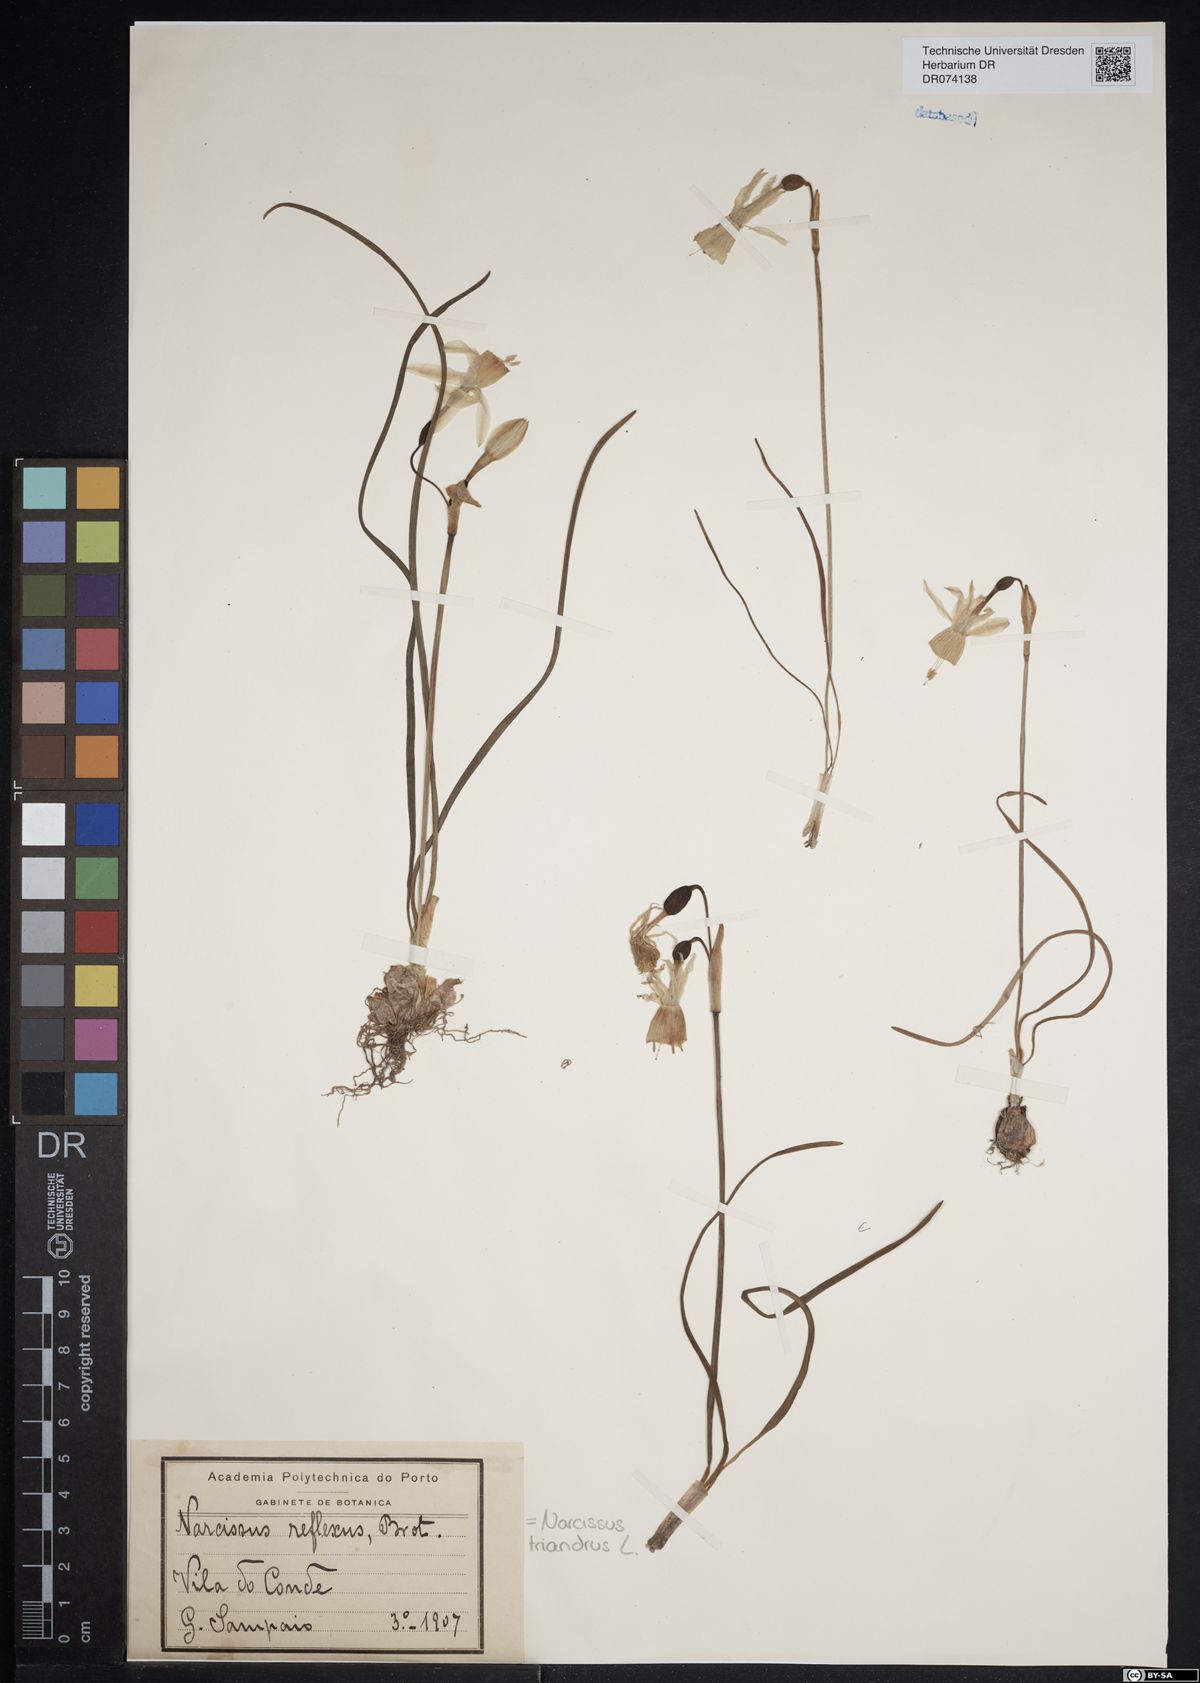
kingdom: Plantae
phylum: Tracheophyta
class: Liliopsida
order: Asparagales
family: Amaryllidaceae
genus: Narcissus
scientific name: Narcissus triandrus
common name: Angel's-tears
